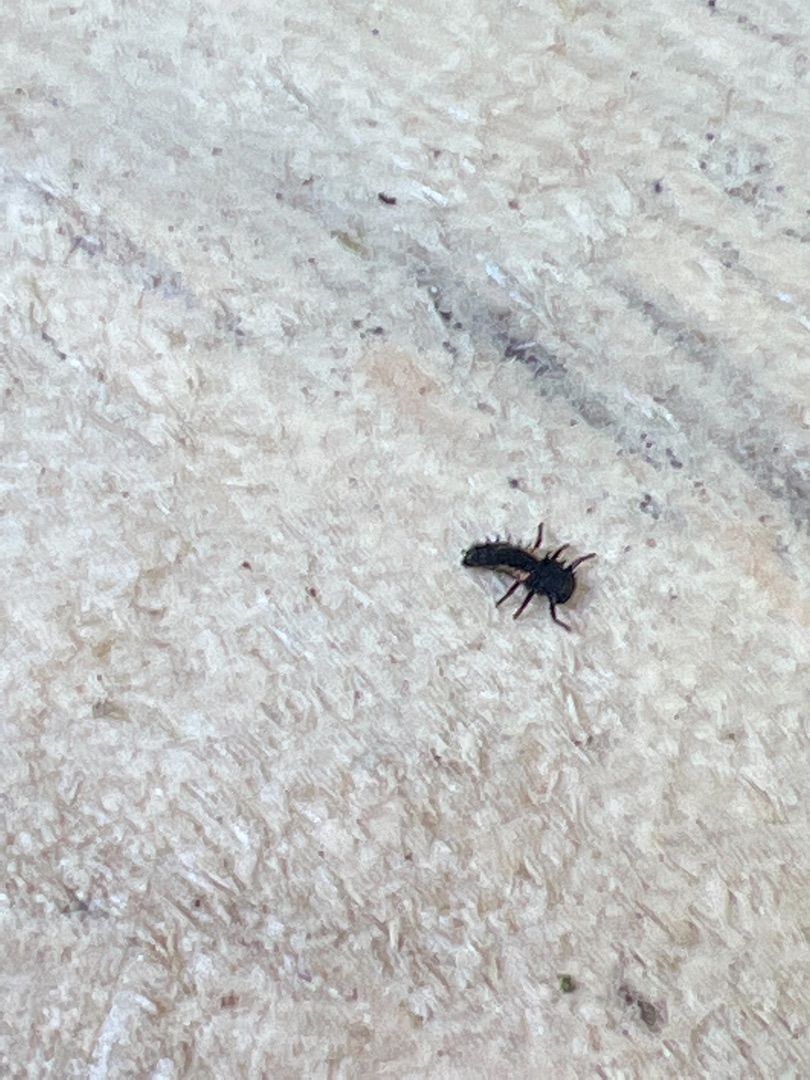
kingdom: Animalia
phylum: Arthropoda
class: Insecta
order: Coleoptera
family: Coccinellidae
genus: Harmonia
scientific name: Harmonia axyridis
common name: Harlekinmariehøne
